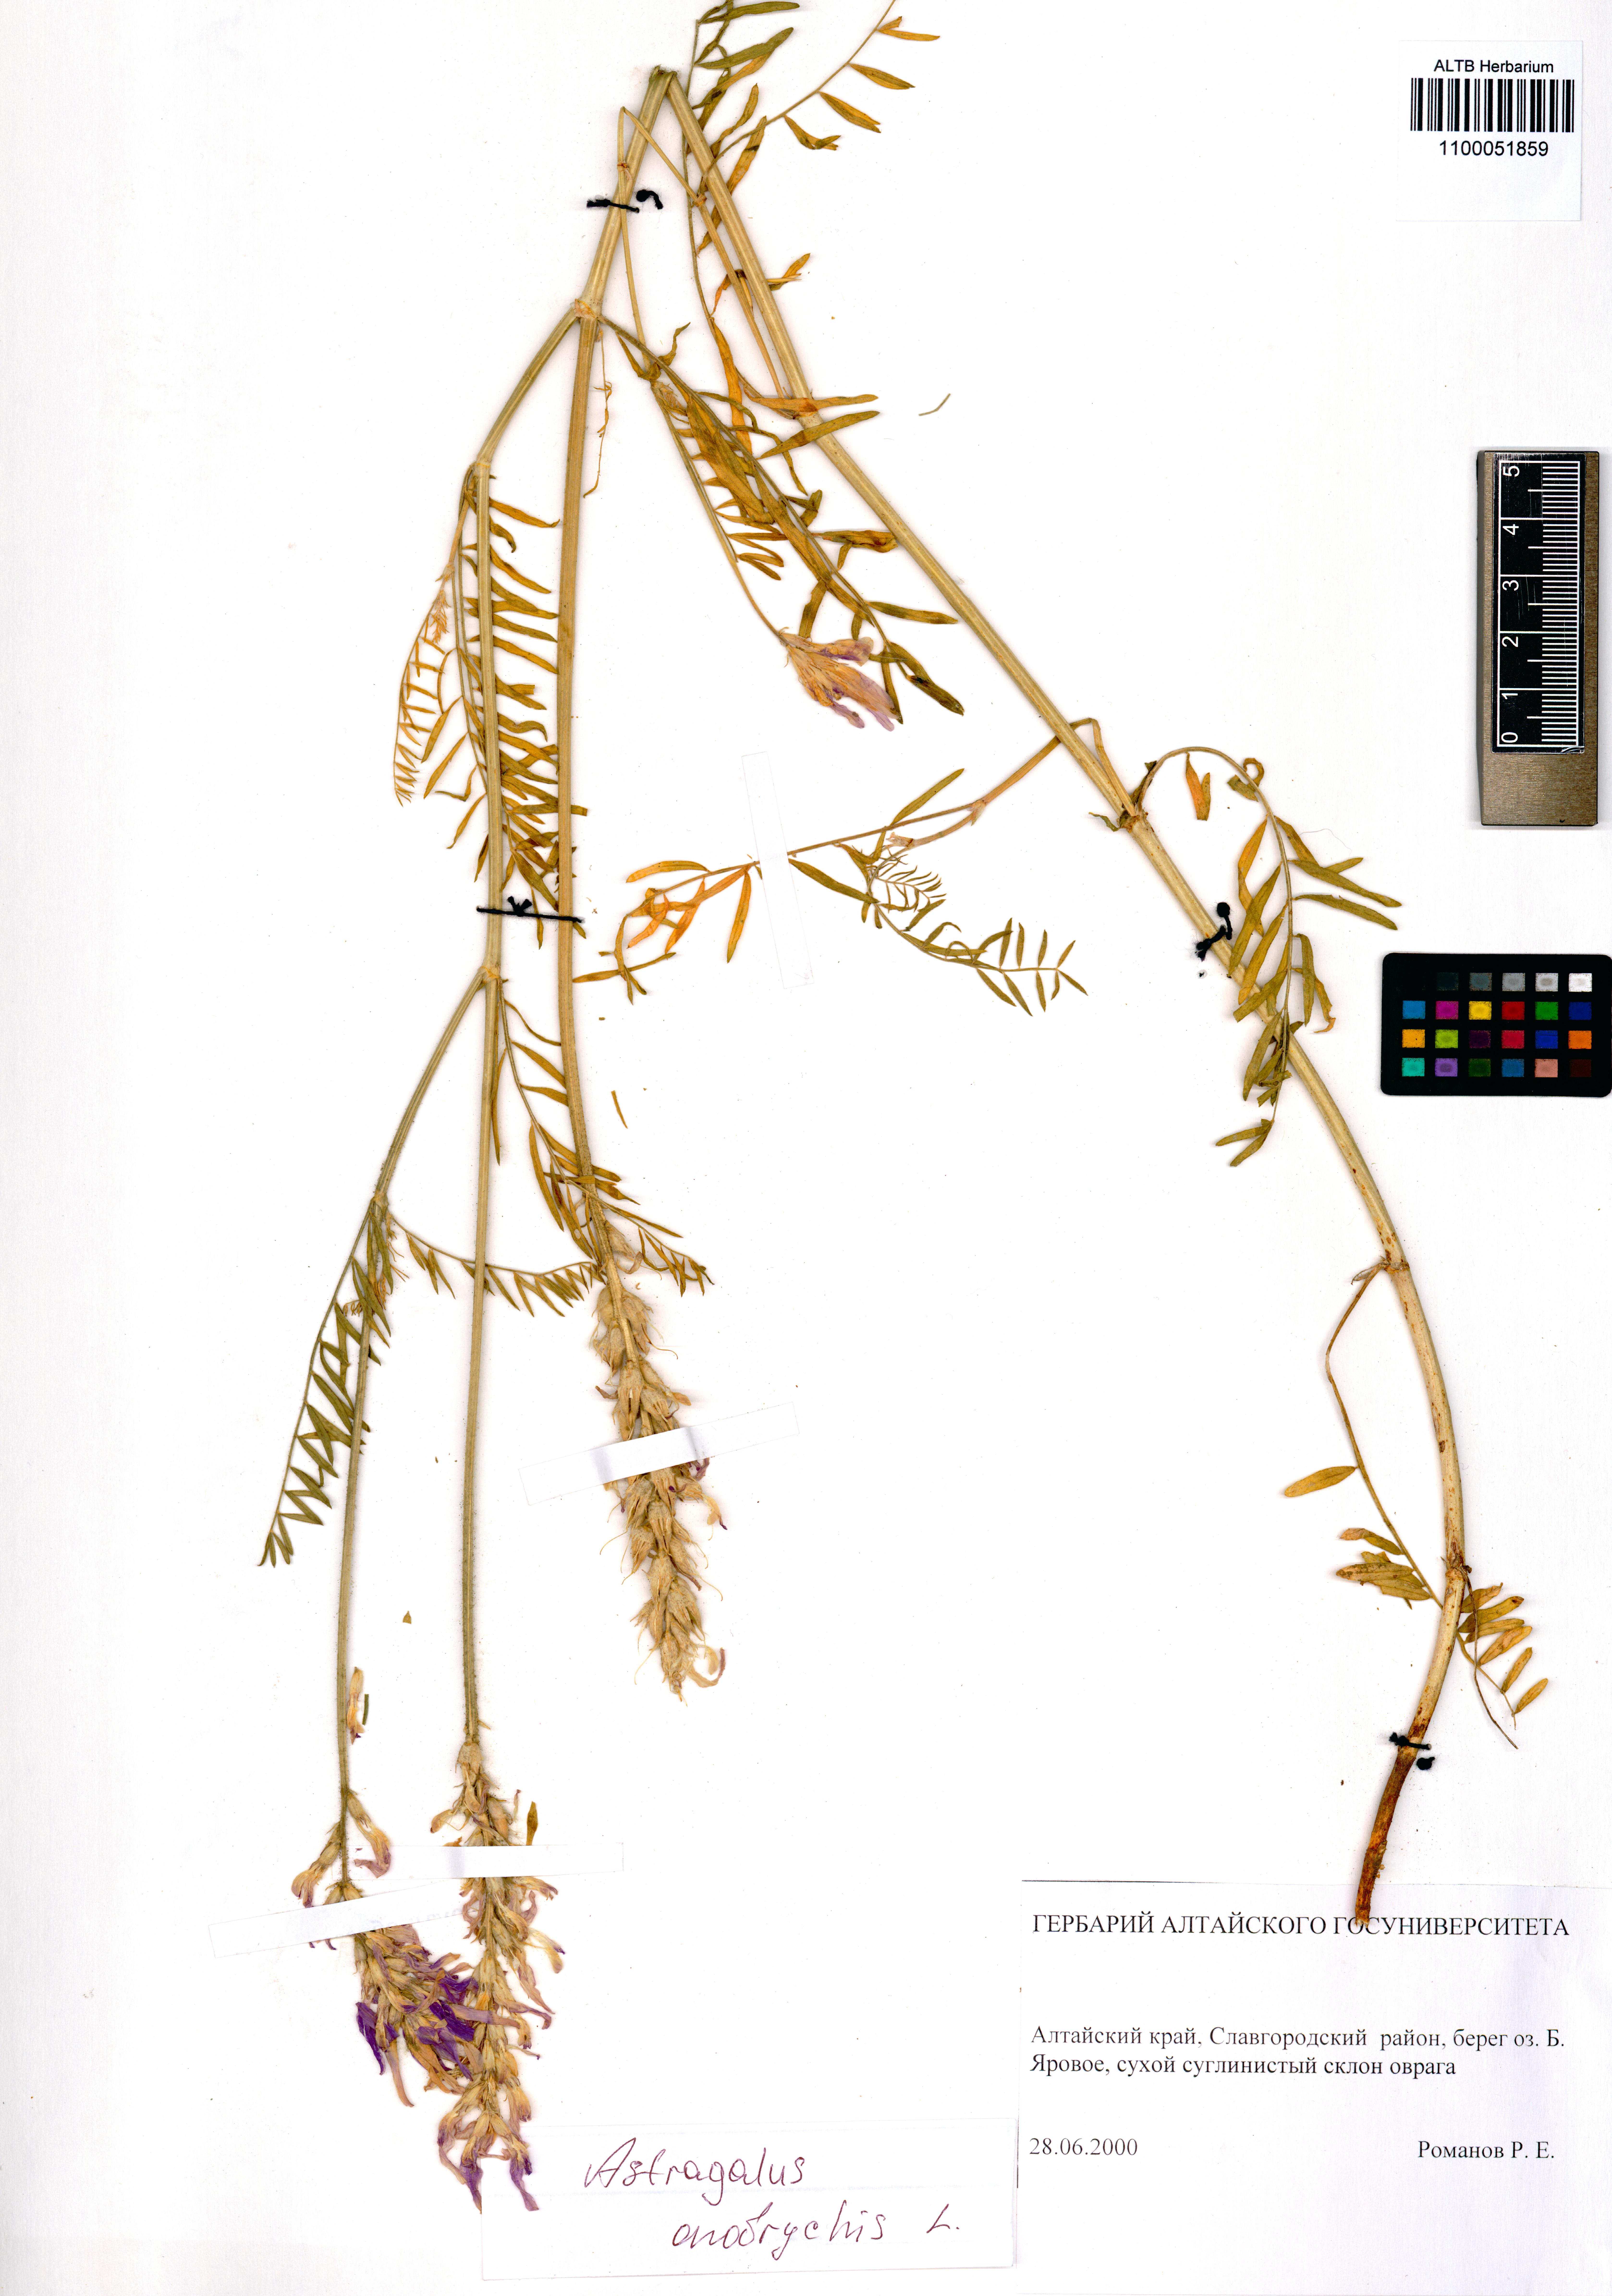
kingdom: Plantae
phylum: Tracheophyta
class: Magnoliopsida
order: Fabales
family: Fabaceae
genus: Astragalus
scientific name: Astragalus onobrychis
